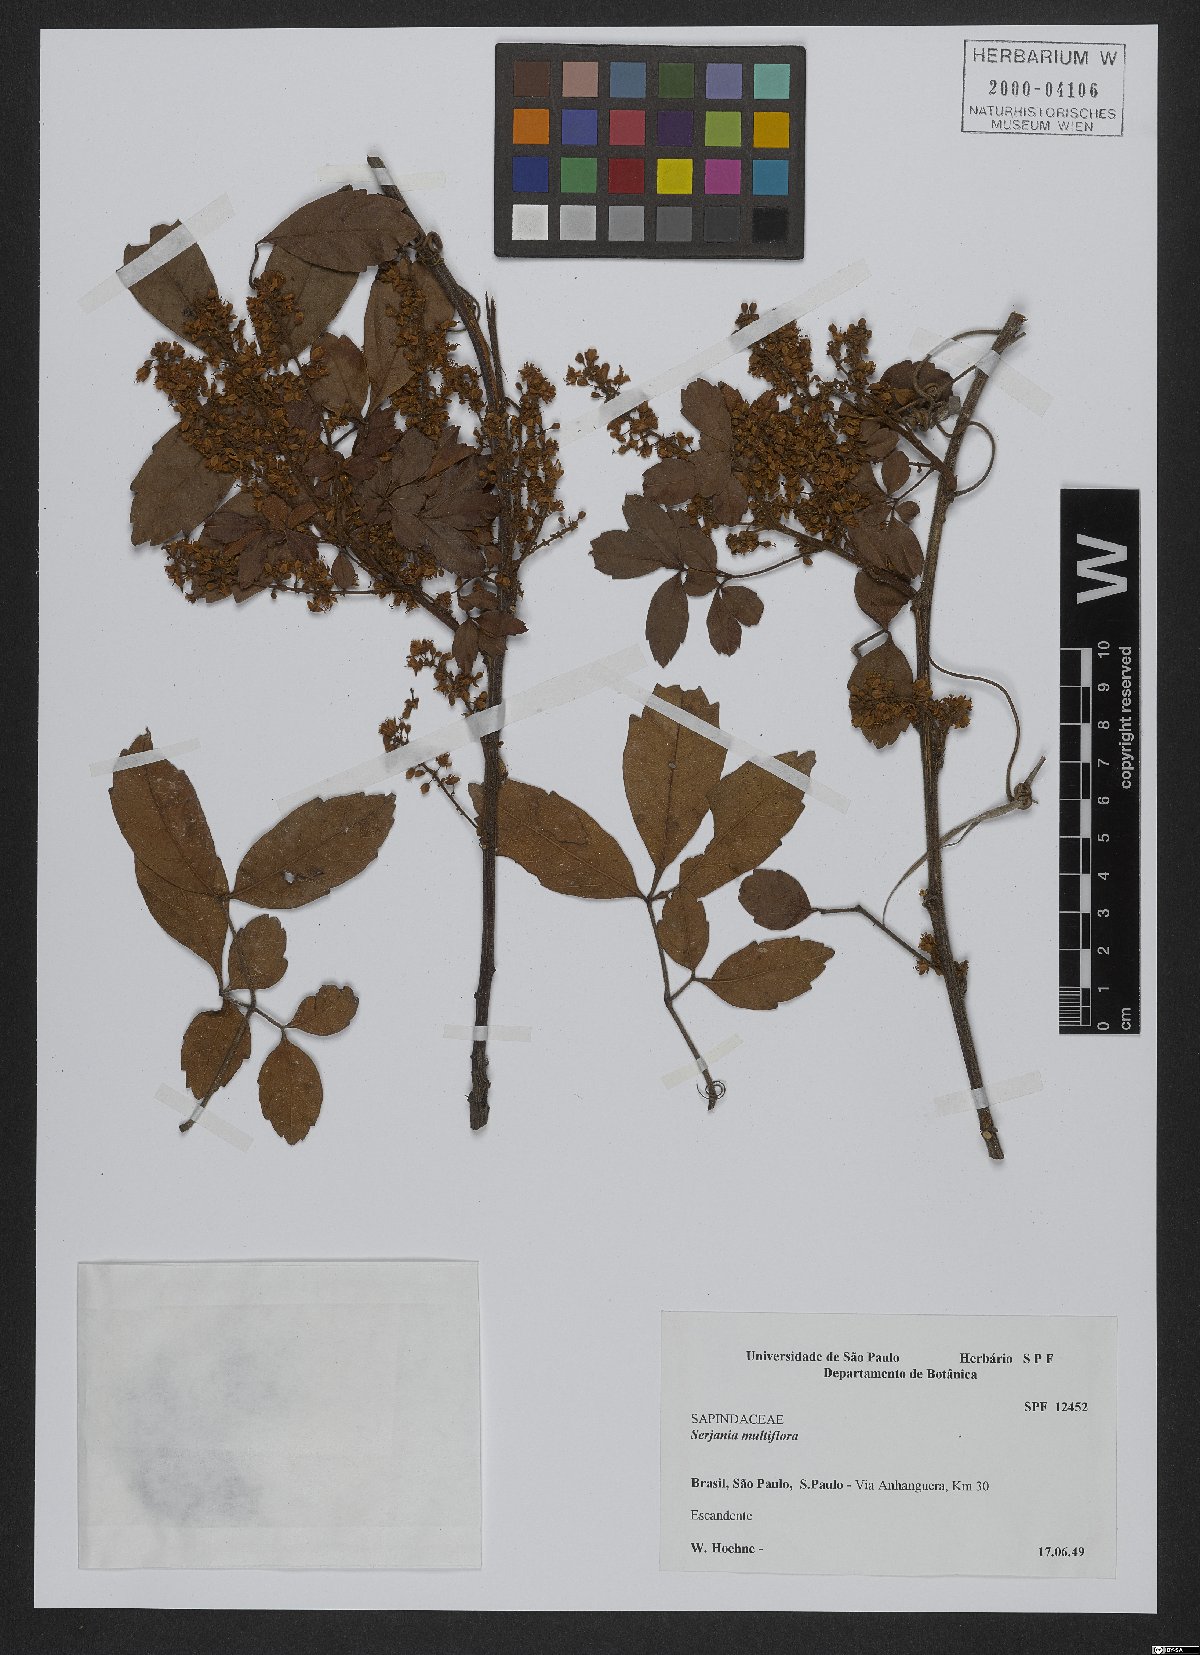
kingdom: Plantae
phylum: Tracheophyta
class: Magnoliopsida
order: Sapindales
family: Sapindaceae
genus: Serjania
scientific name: Serjania multiflora
